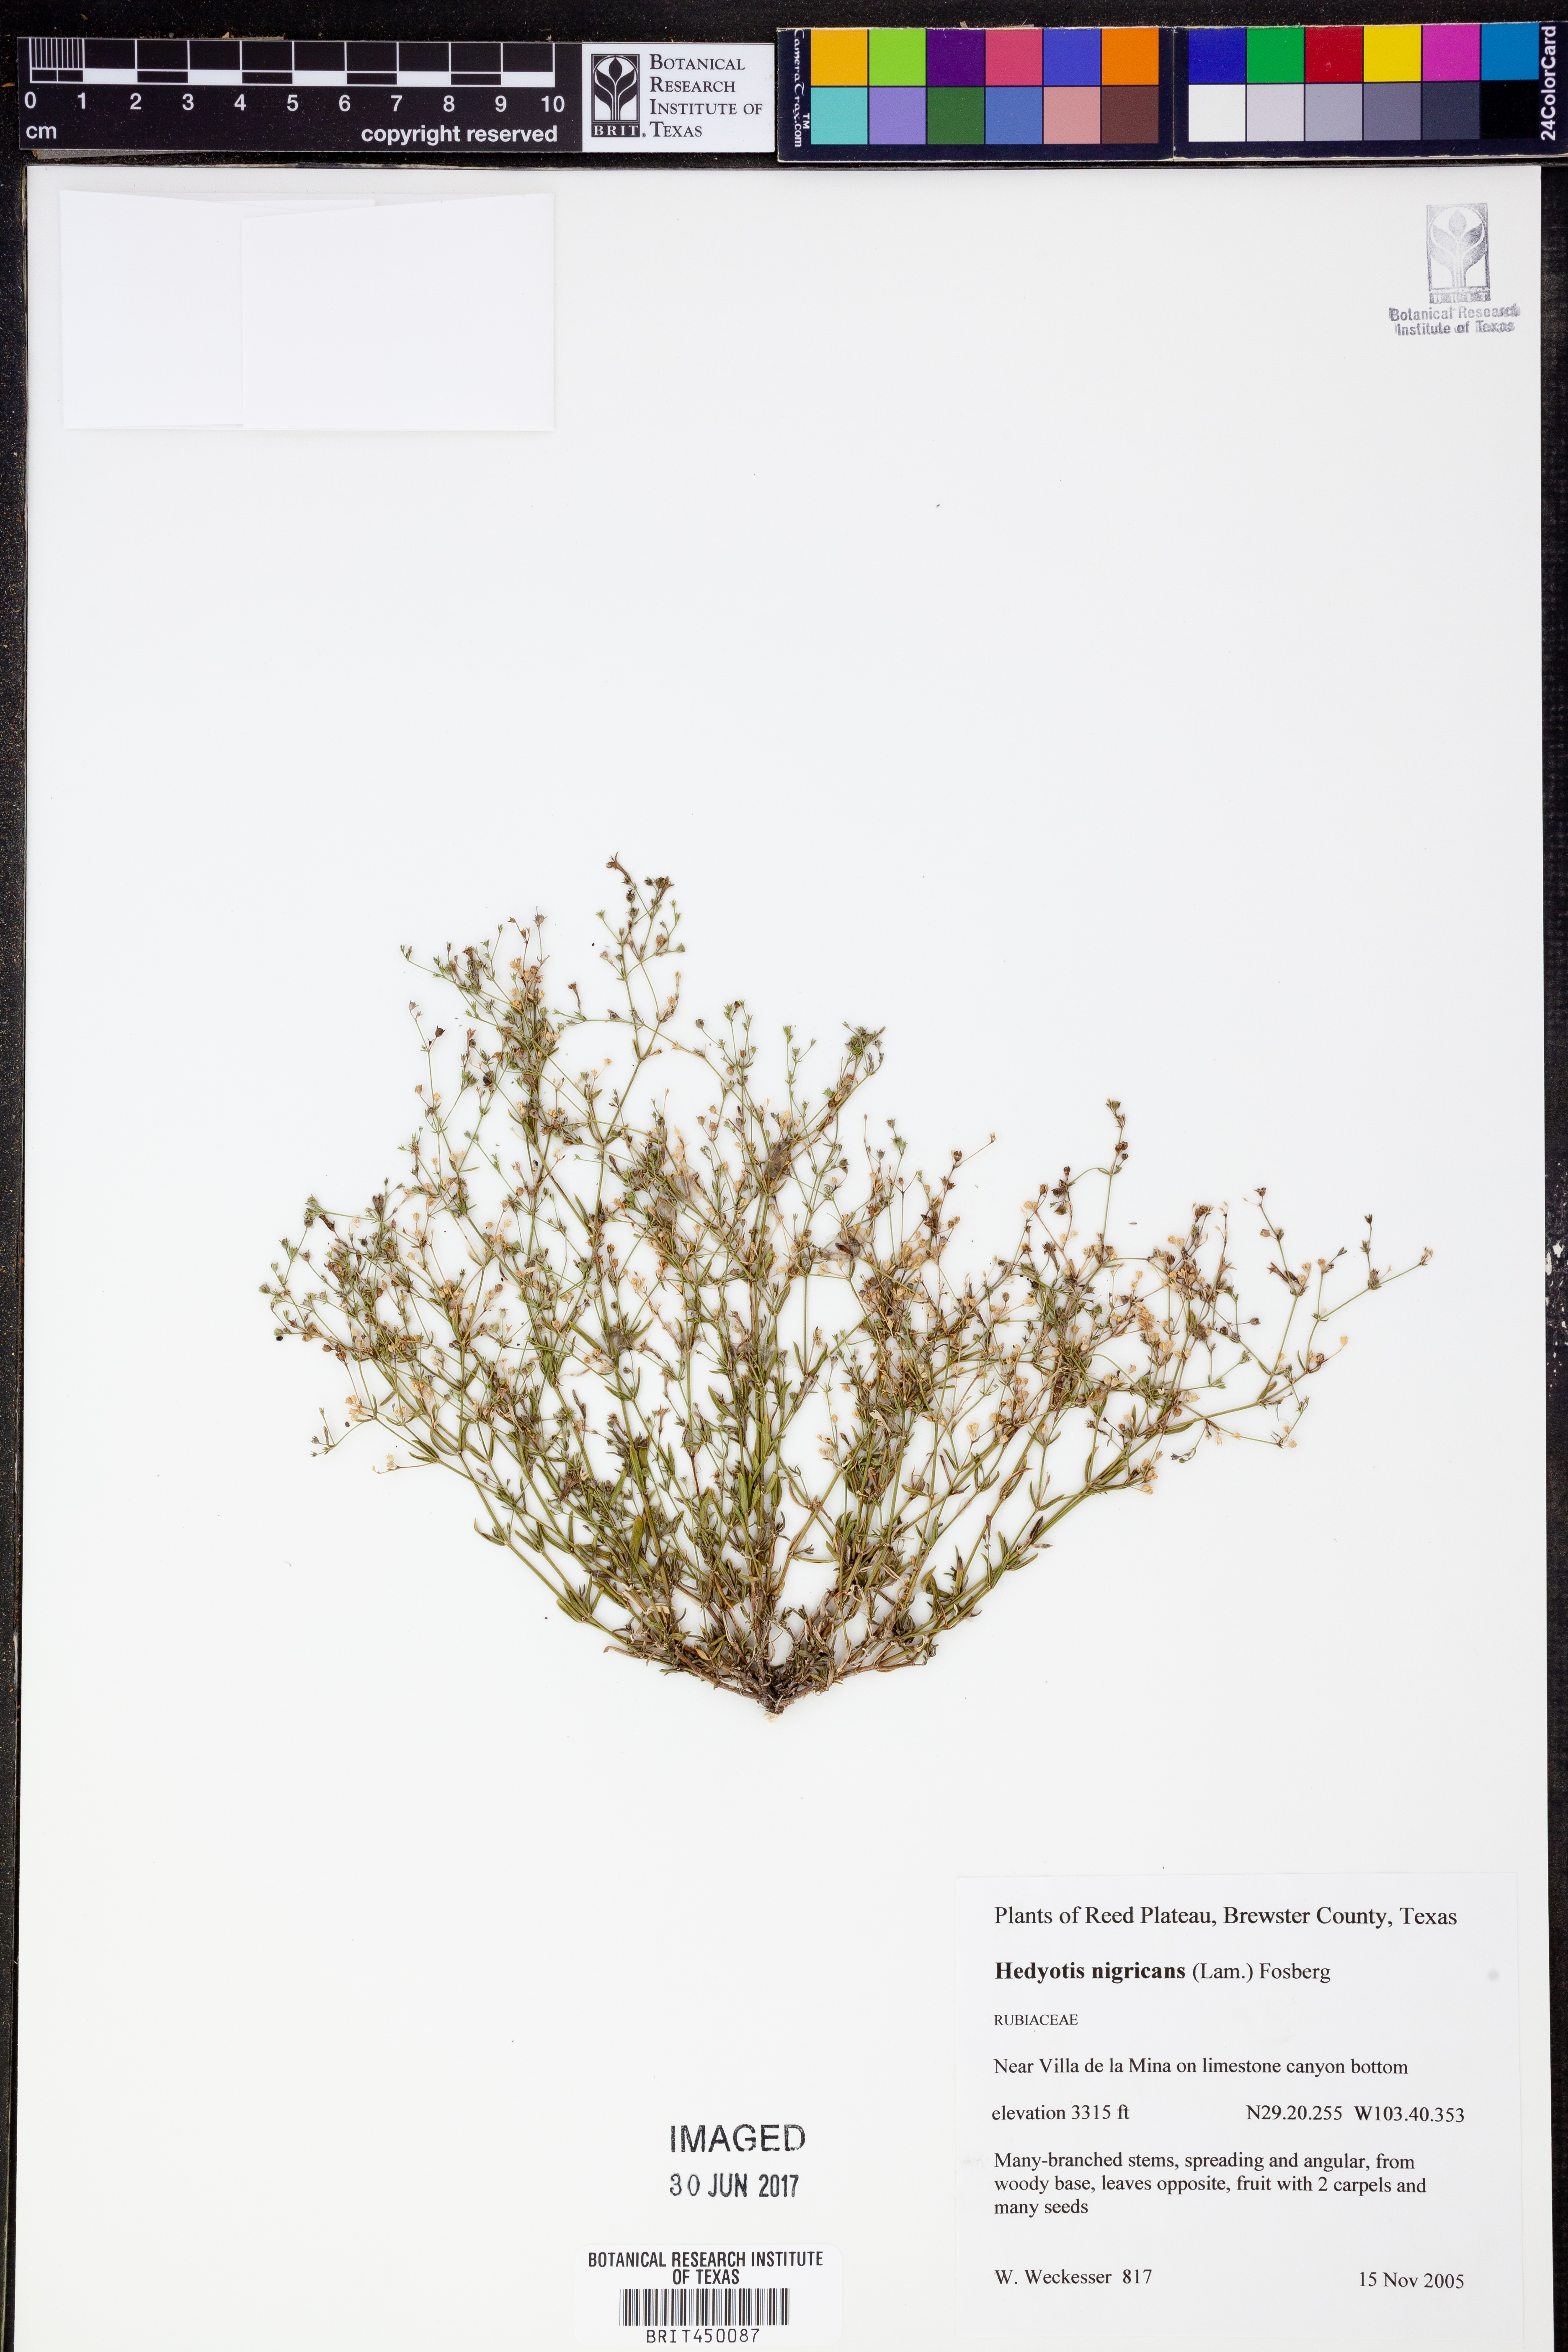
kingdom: Plantae
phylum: Tracheophyta
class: Magnoliopsida
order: Gentianales
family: Rubiaceae
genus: Stenaria
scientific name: Stenaria nigricans
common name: Diamondflowers
